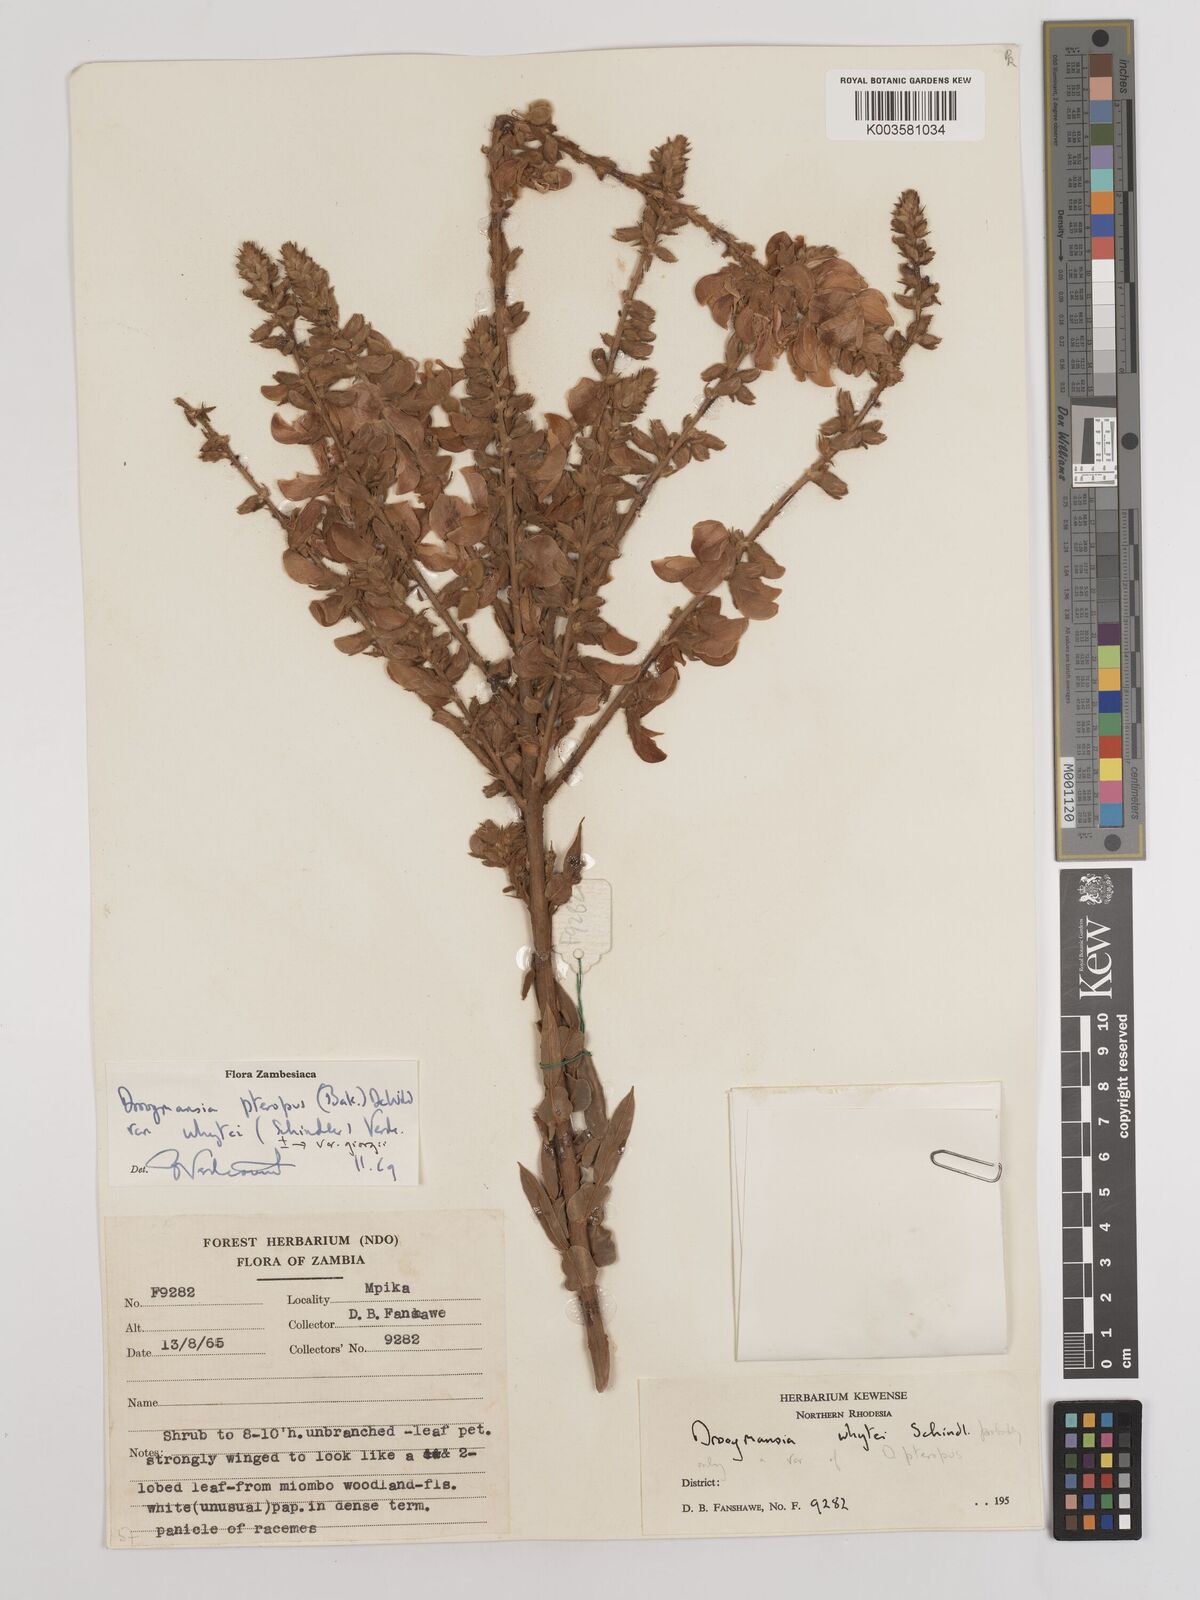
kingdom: Plantae
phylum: Tracheophyta
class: Magnoliopsida
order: Fabales
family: Fabaceae
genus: Droogmansia
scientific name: Droogmansia pteropus
